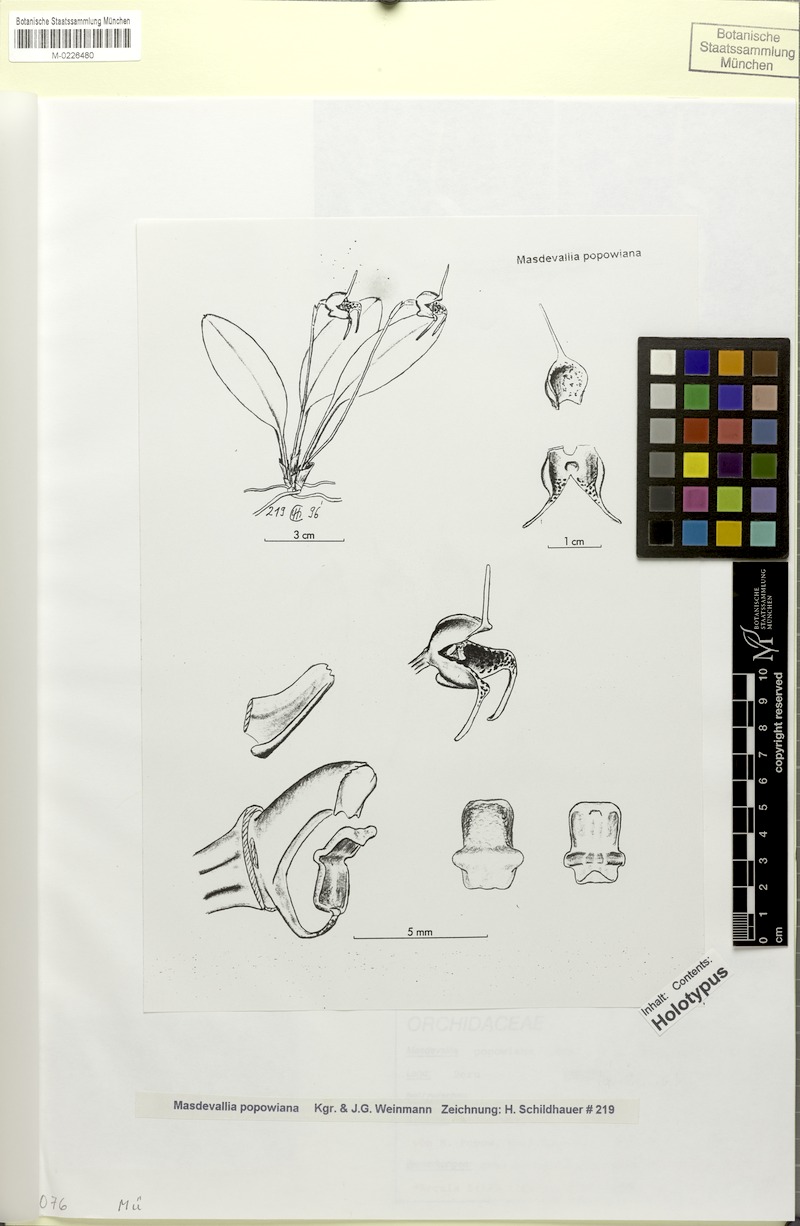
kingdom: Plantae
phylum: Tracheophyta
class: Liliopsida
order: Asparagales
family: Orchidaceae
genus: Masdevallia
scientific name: Masdevallia popowiana
